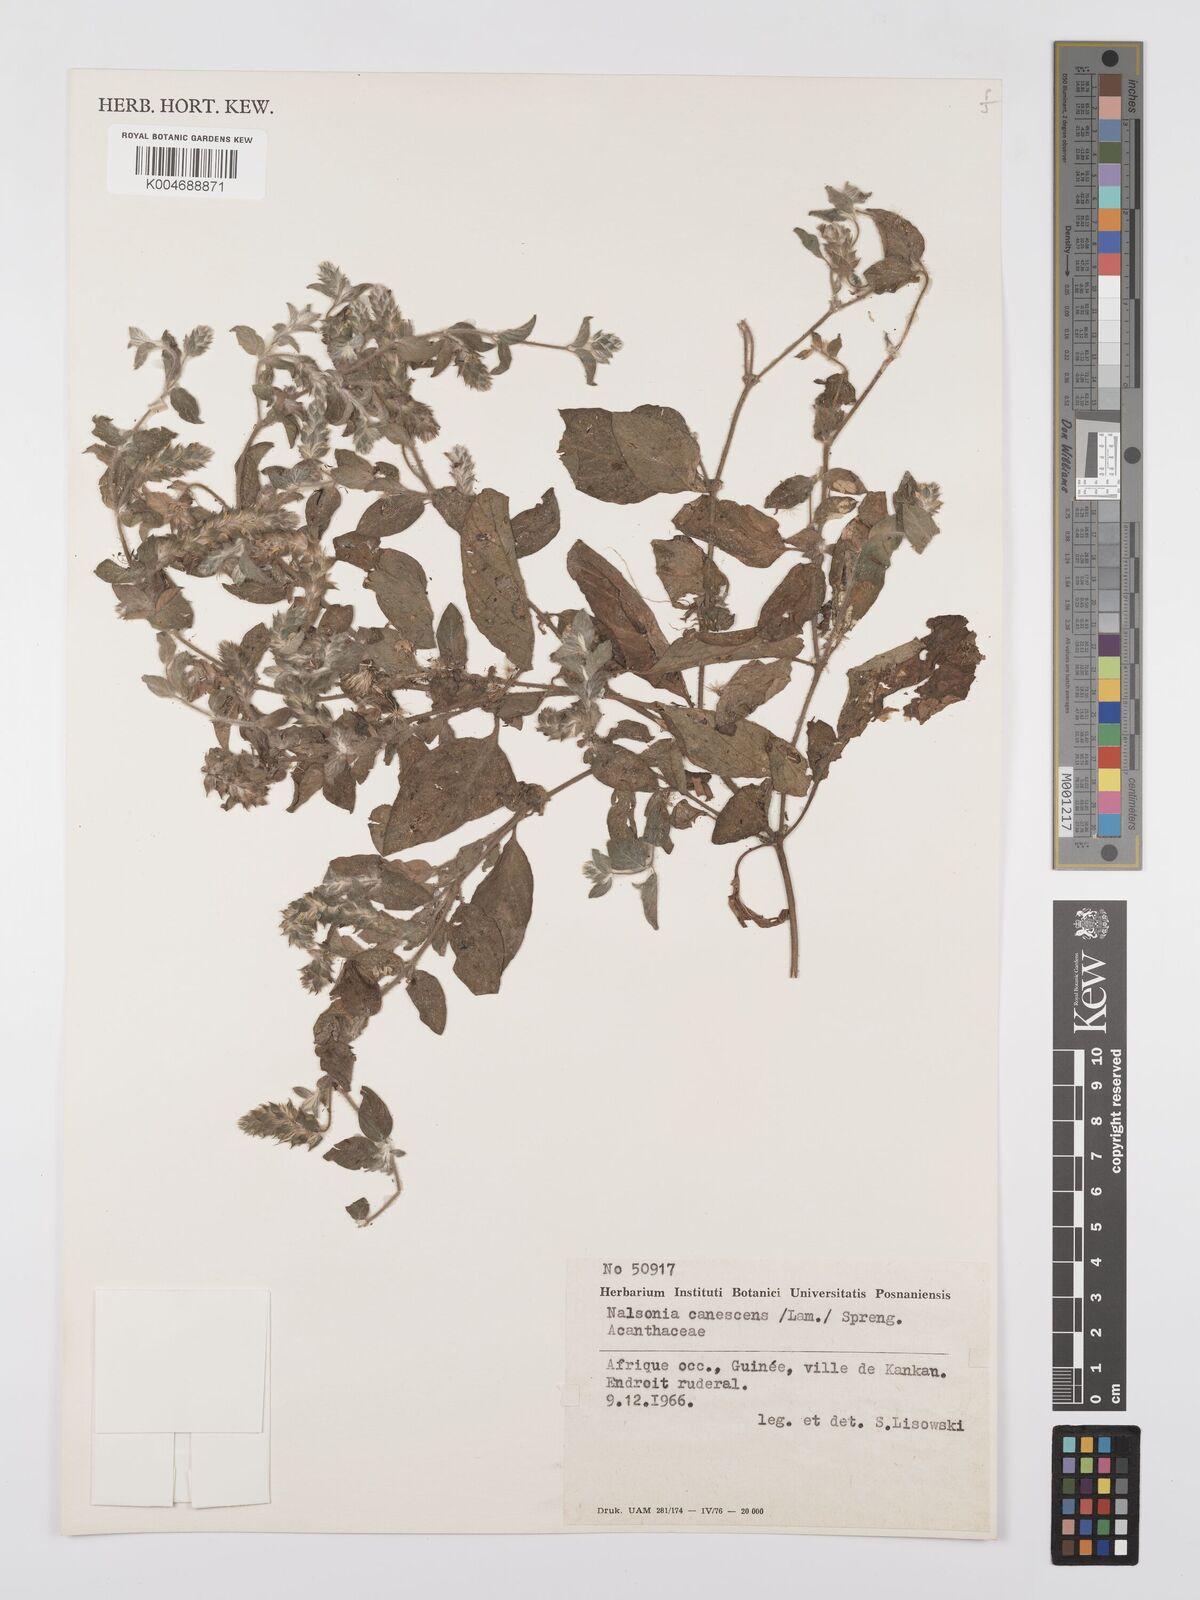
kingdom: Plantae
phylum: Tracheophyta
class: Magnoliopsida
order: Lamiales
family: Acanthaceae
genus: Nelsonia
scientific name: Nelsonia canescens
